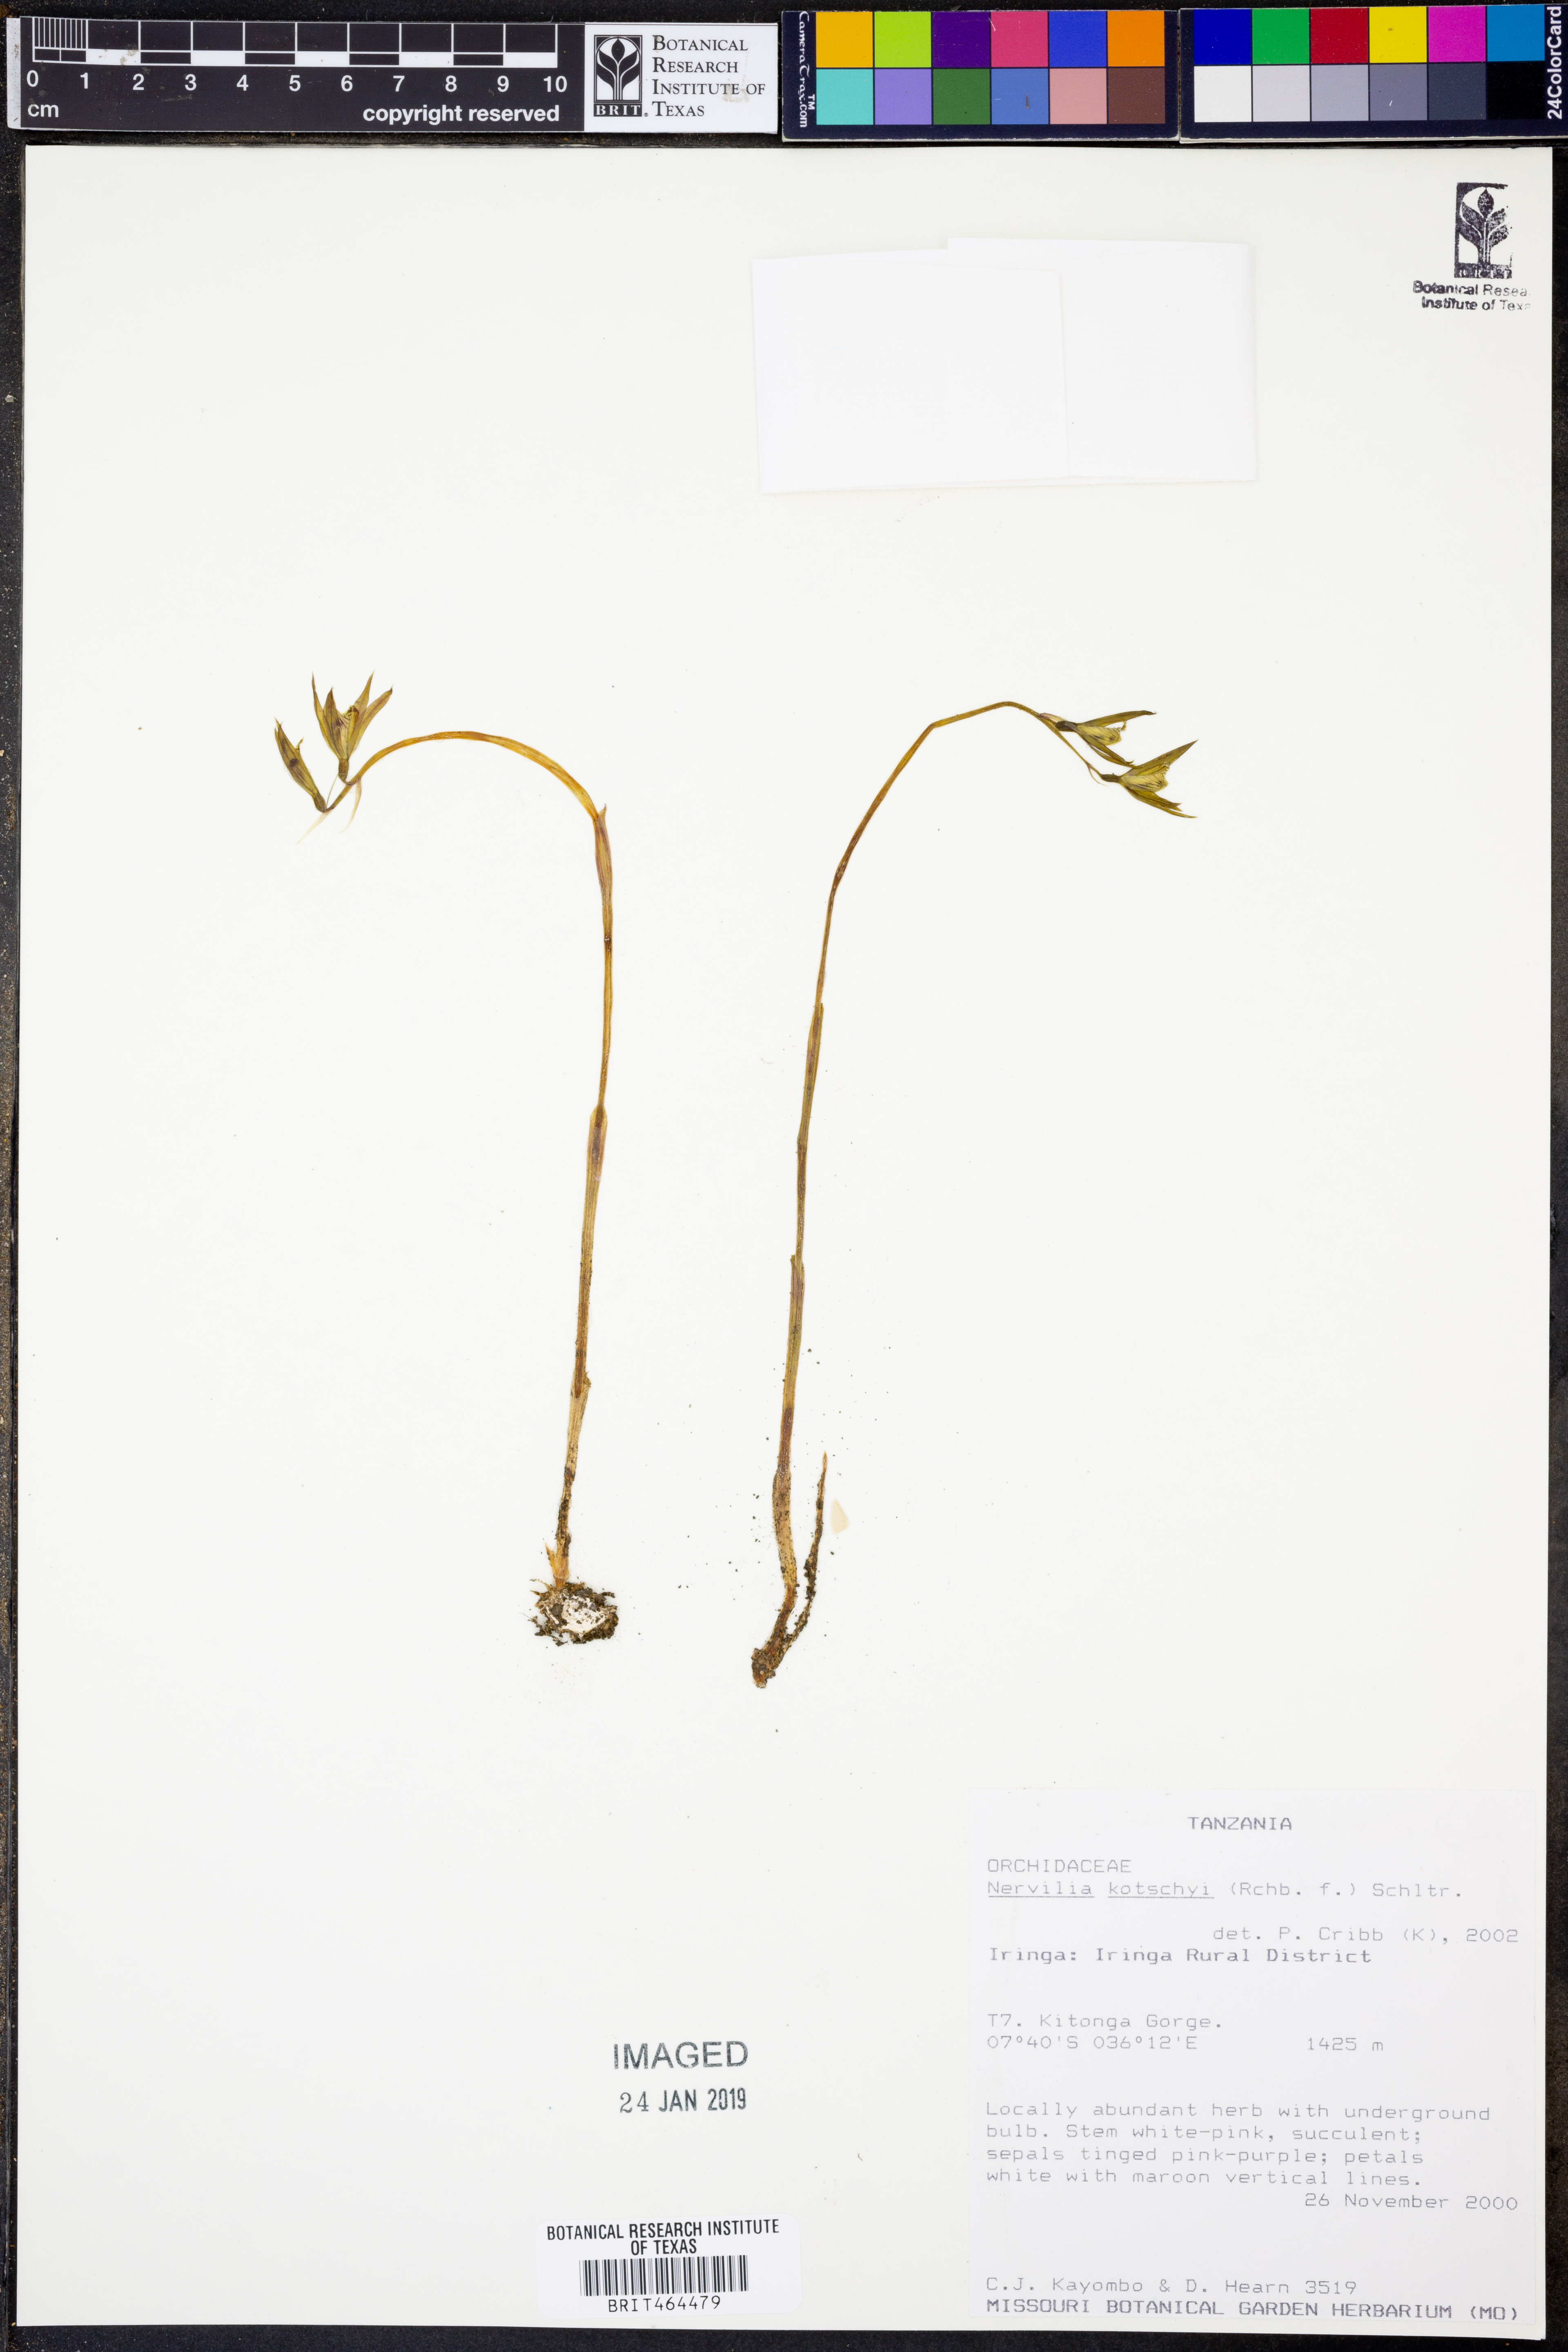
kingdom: Plantae
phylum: Tracheophyta
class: Liliopsida
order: Asparagales
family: Orchidaceae
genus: Nervilia
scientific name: Nervilia kotschyi
